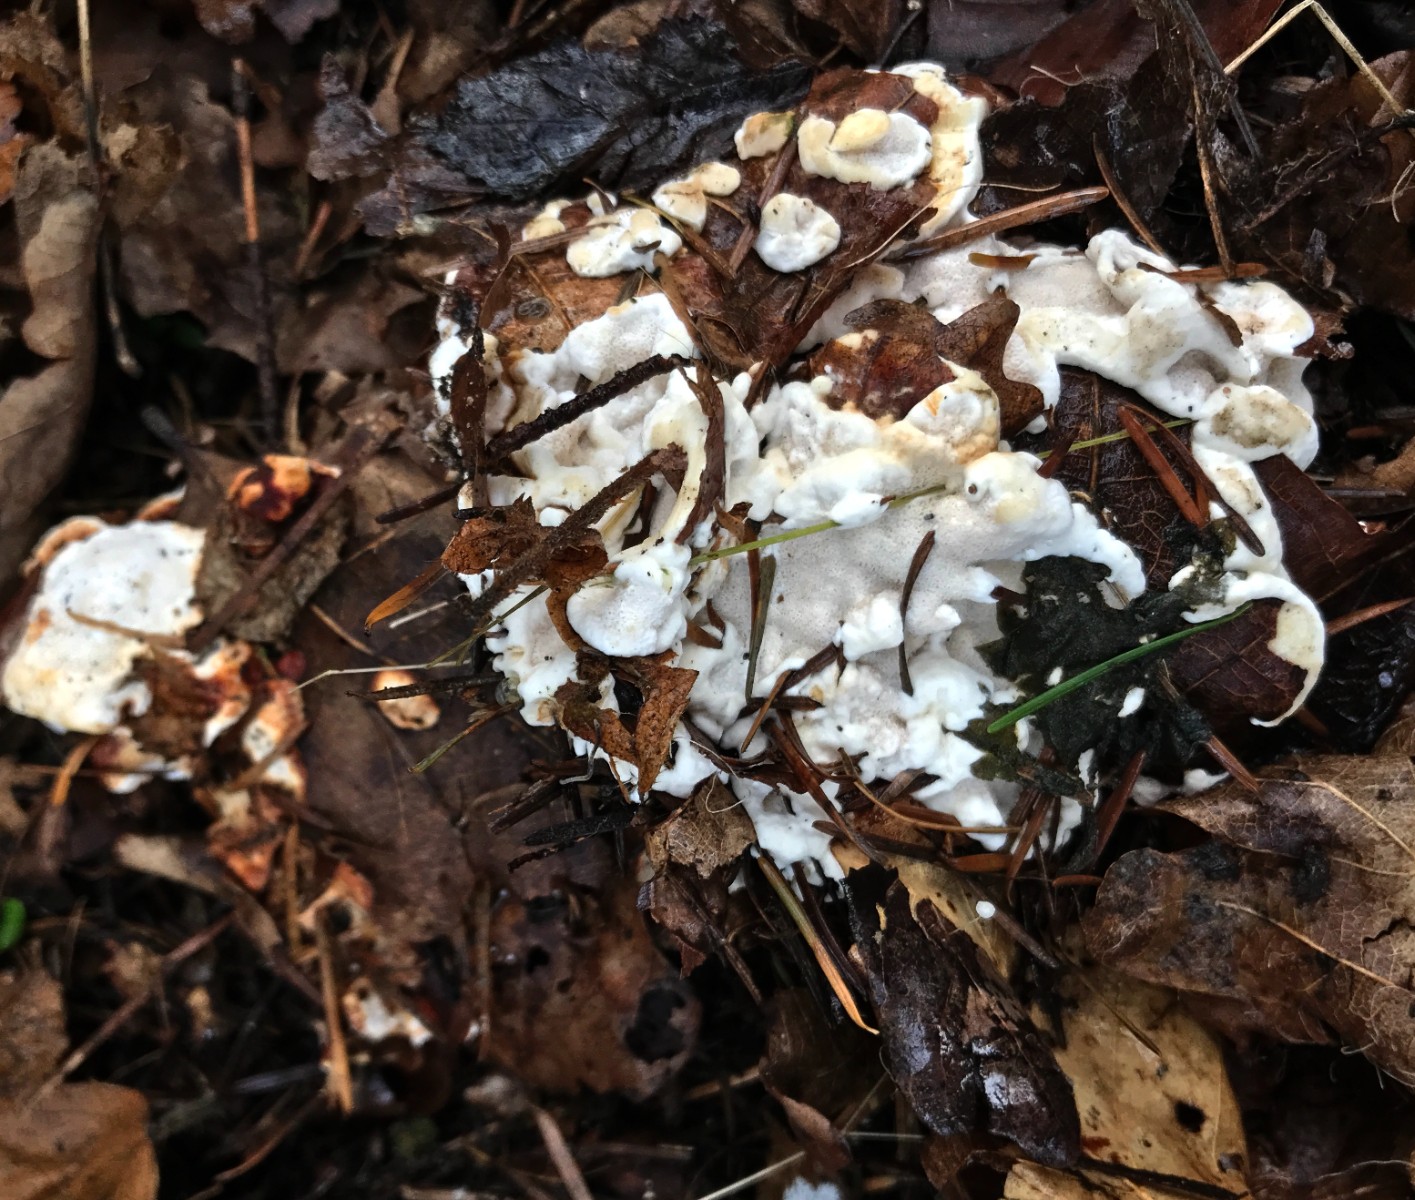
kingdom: Fungi
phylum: Basidiomycota
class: Agaricomycetes
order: Russulales
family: Bondarzewiaceae
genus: Heterobasidion
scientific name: Heterobasidion annosum
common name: almindelig rodfordærver
